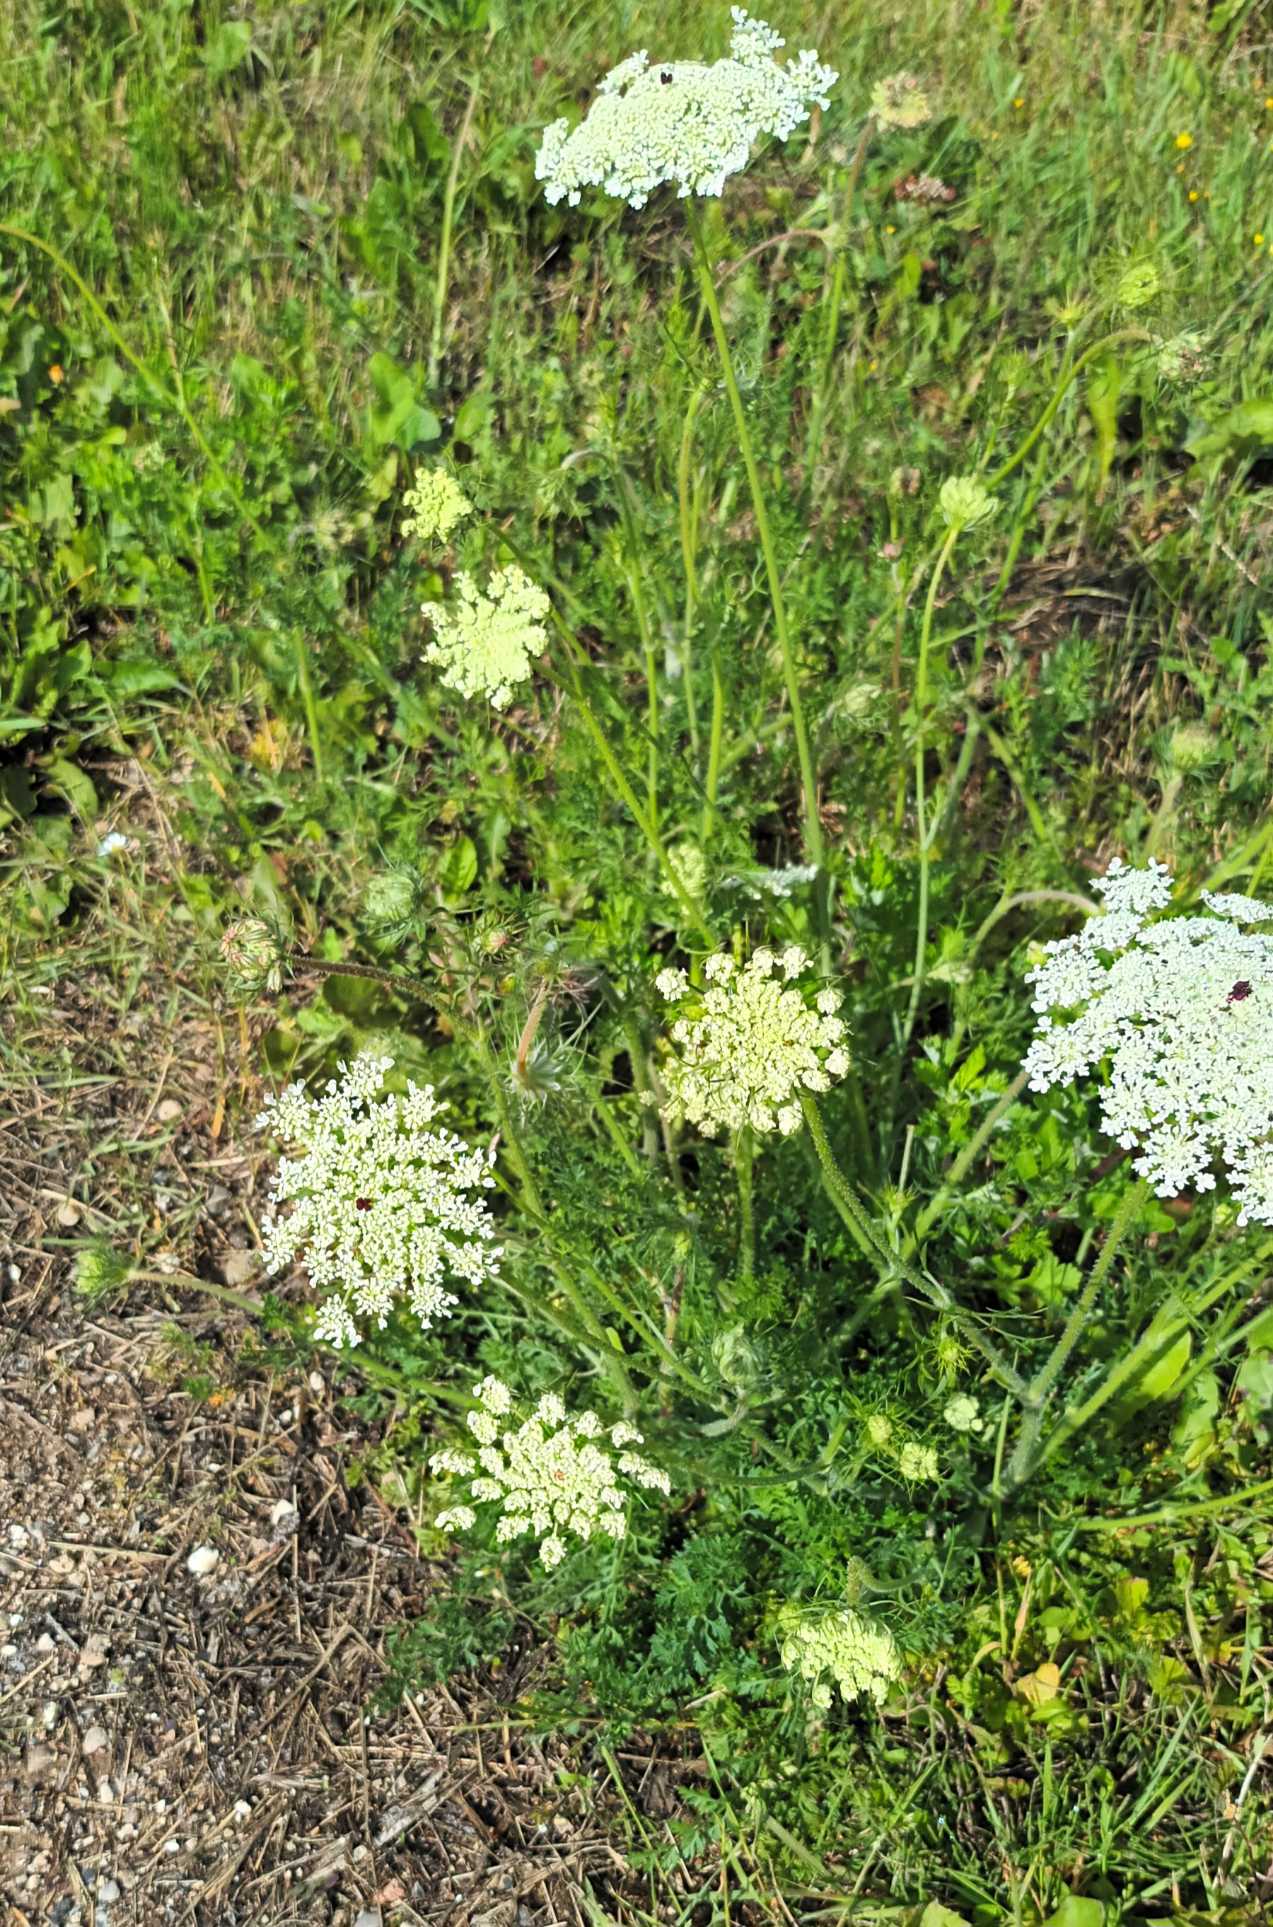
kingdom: Plantae
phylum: Tracheophyta
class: Magnoliopsida
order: Apiales
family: Apiaceae
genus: Daucus
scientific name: Daucus carota
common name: Vild gulerod
